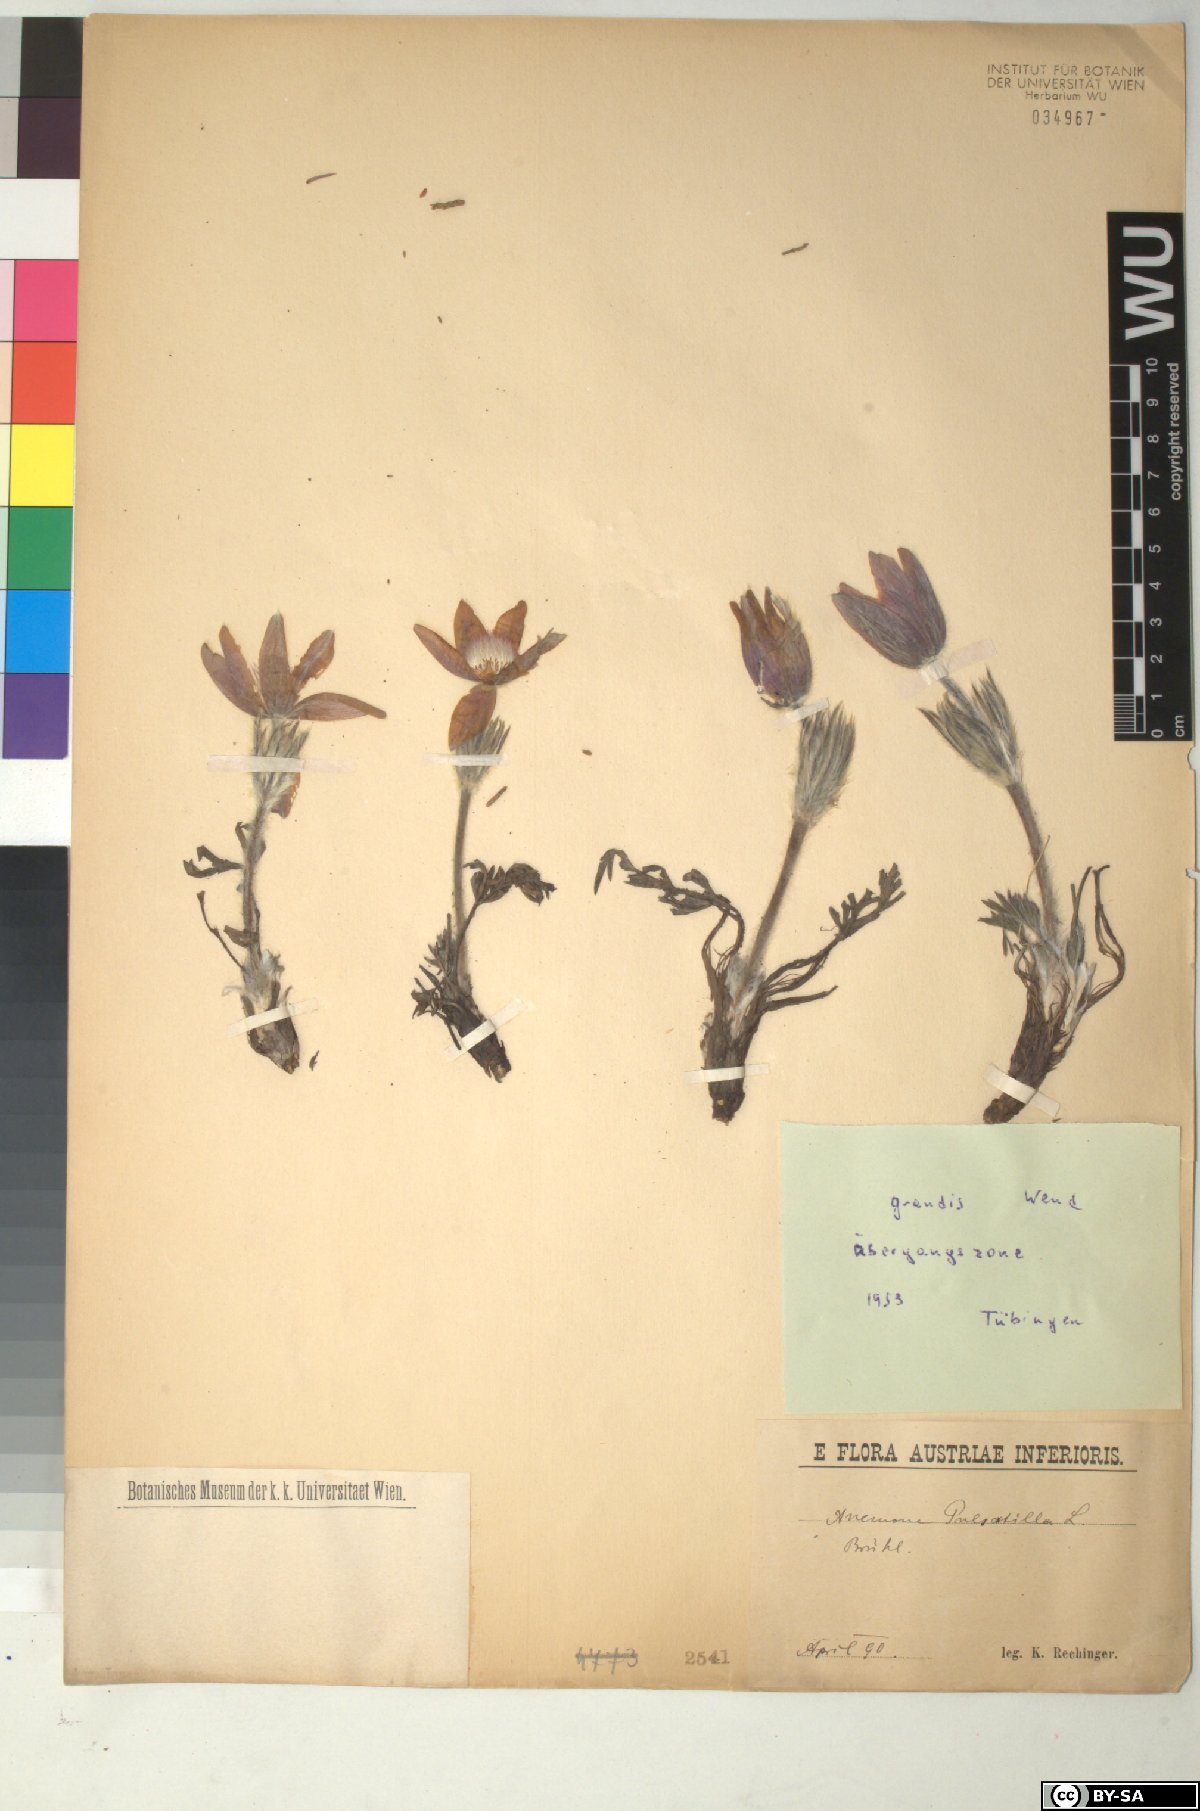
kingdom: Plantae
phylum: Tracheophyta
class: Magnoliopsida
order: Ranunculales
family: Ranunculaceae
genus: Pulsatilla
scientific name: Pulsatilla grandis
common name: Greater pasque flower
